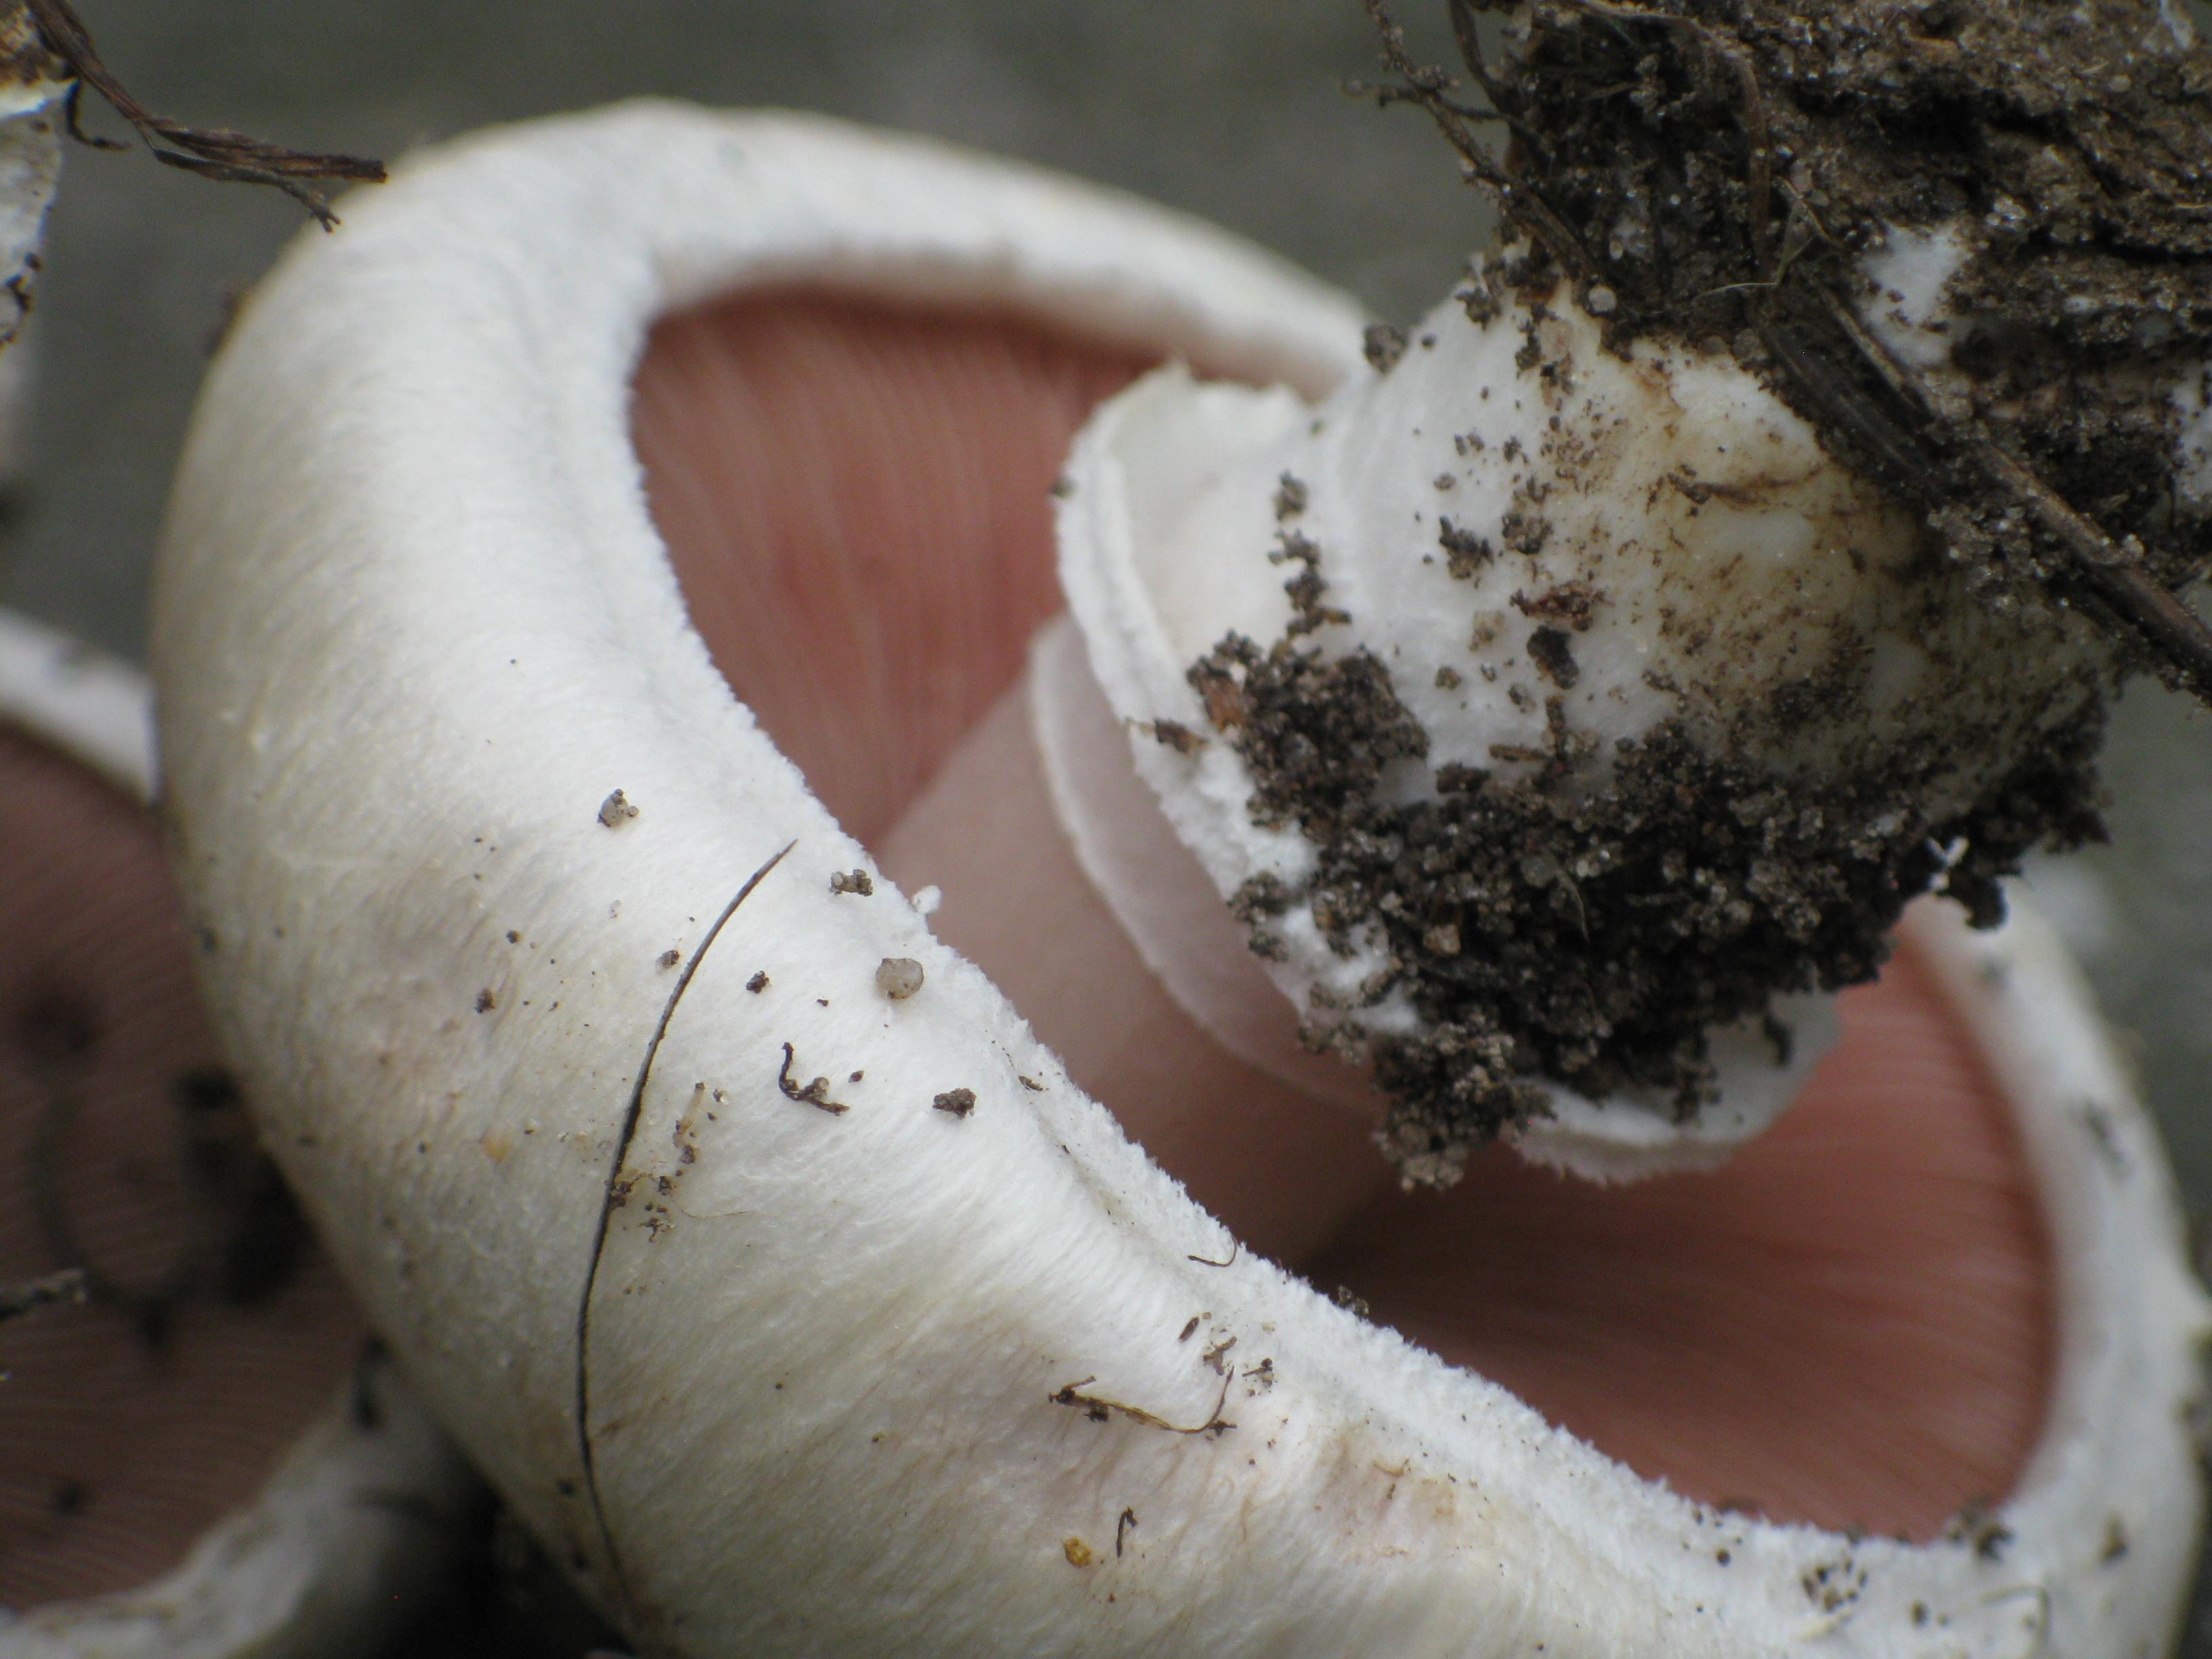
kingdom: Fungi
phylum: Basidiomycota
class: Agaricomycetes
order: Agaricales
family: Agaricaceae
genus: Agaricus
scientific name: Agaricus bitorquis
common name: vej-champignon
